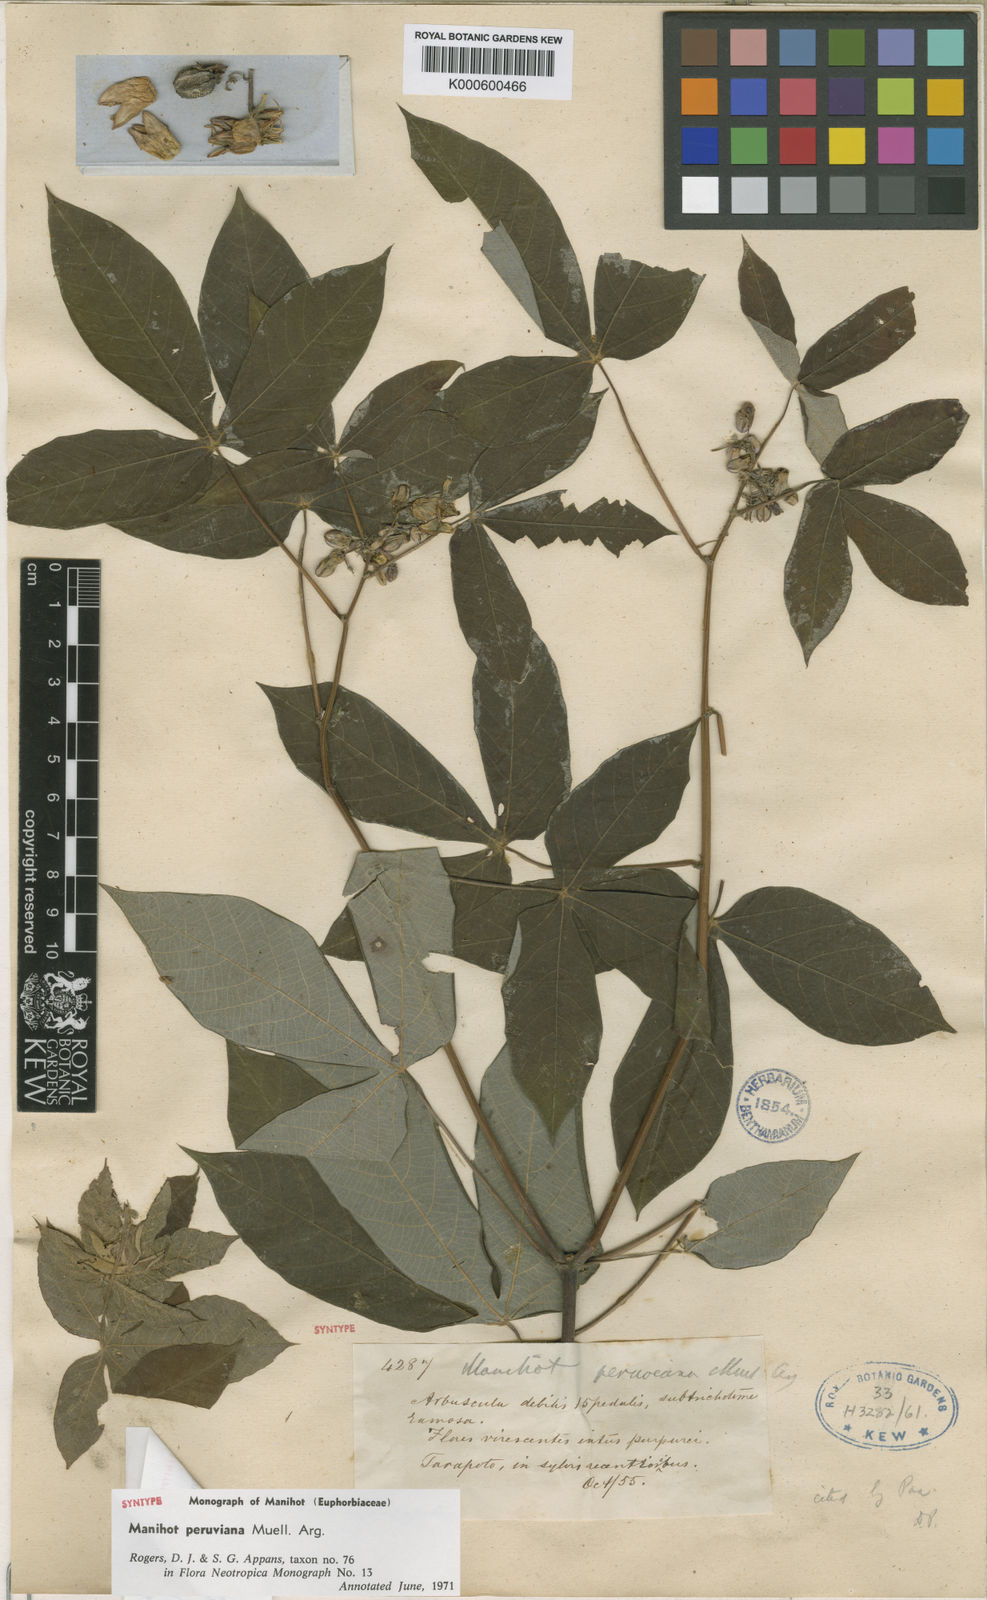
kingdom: Plantae
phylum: Tracheophyta
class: Magnoliopsida
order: Malpighiales
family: Euphorbiaceae
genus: Manihot
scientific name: Manihot
